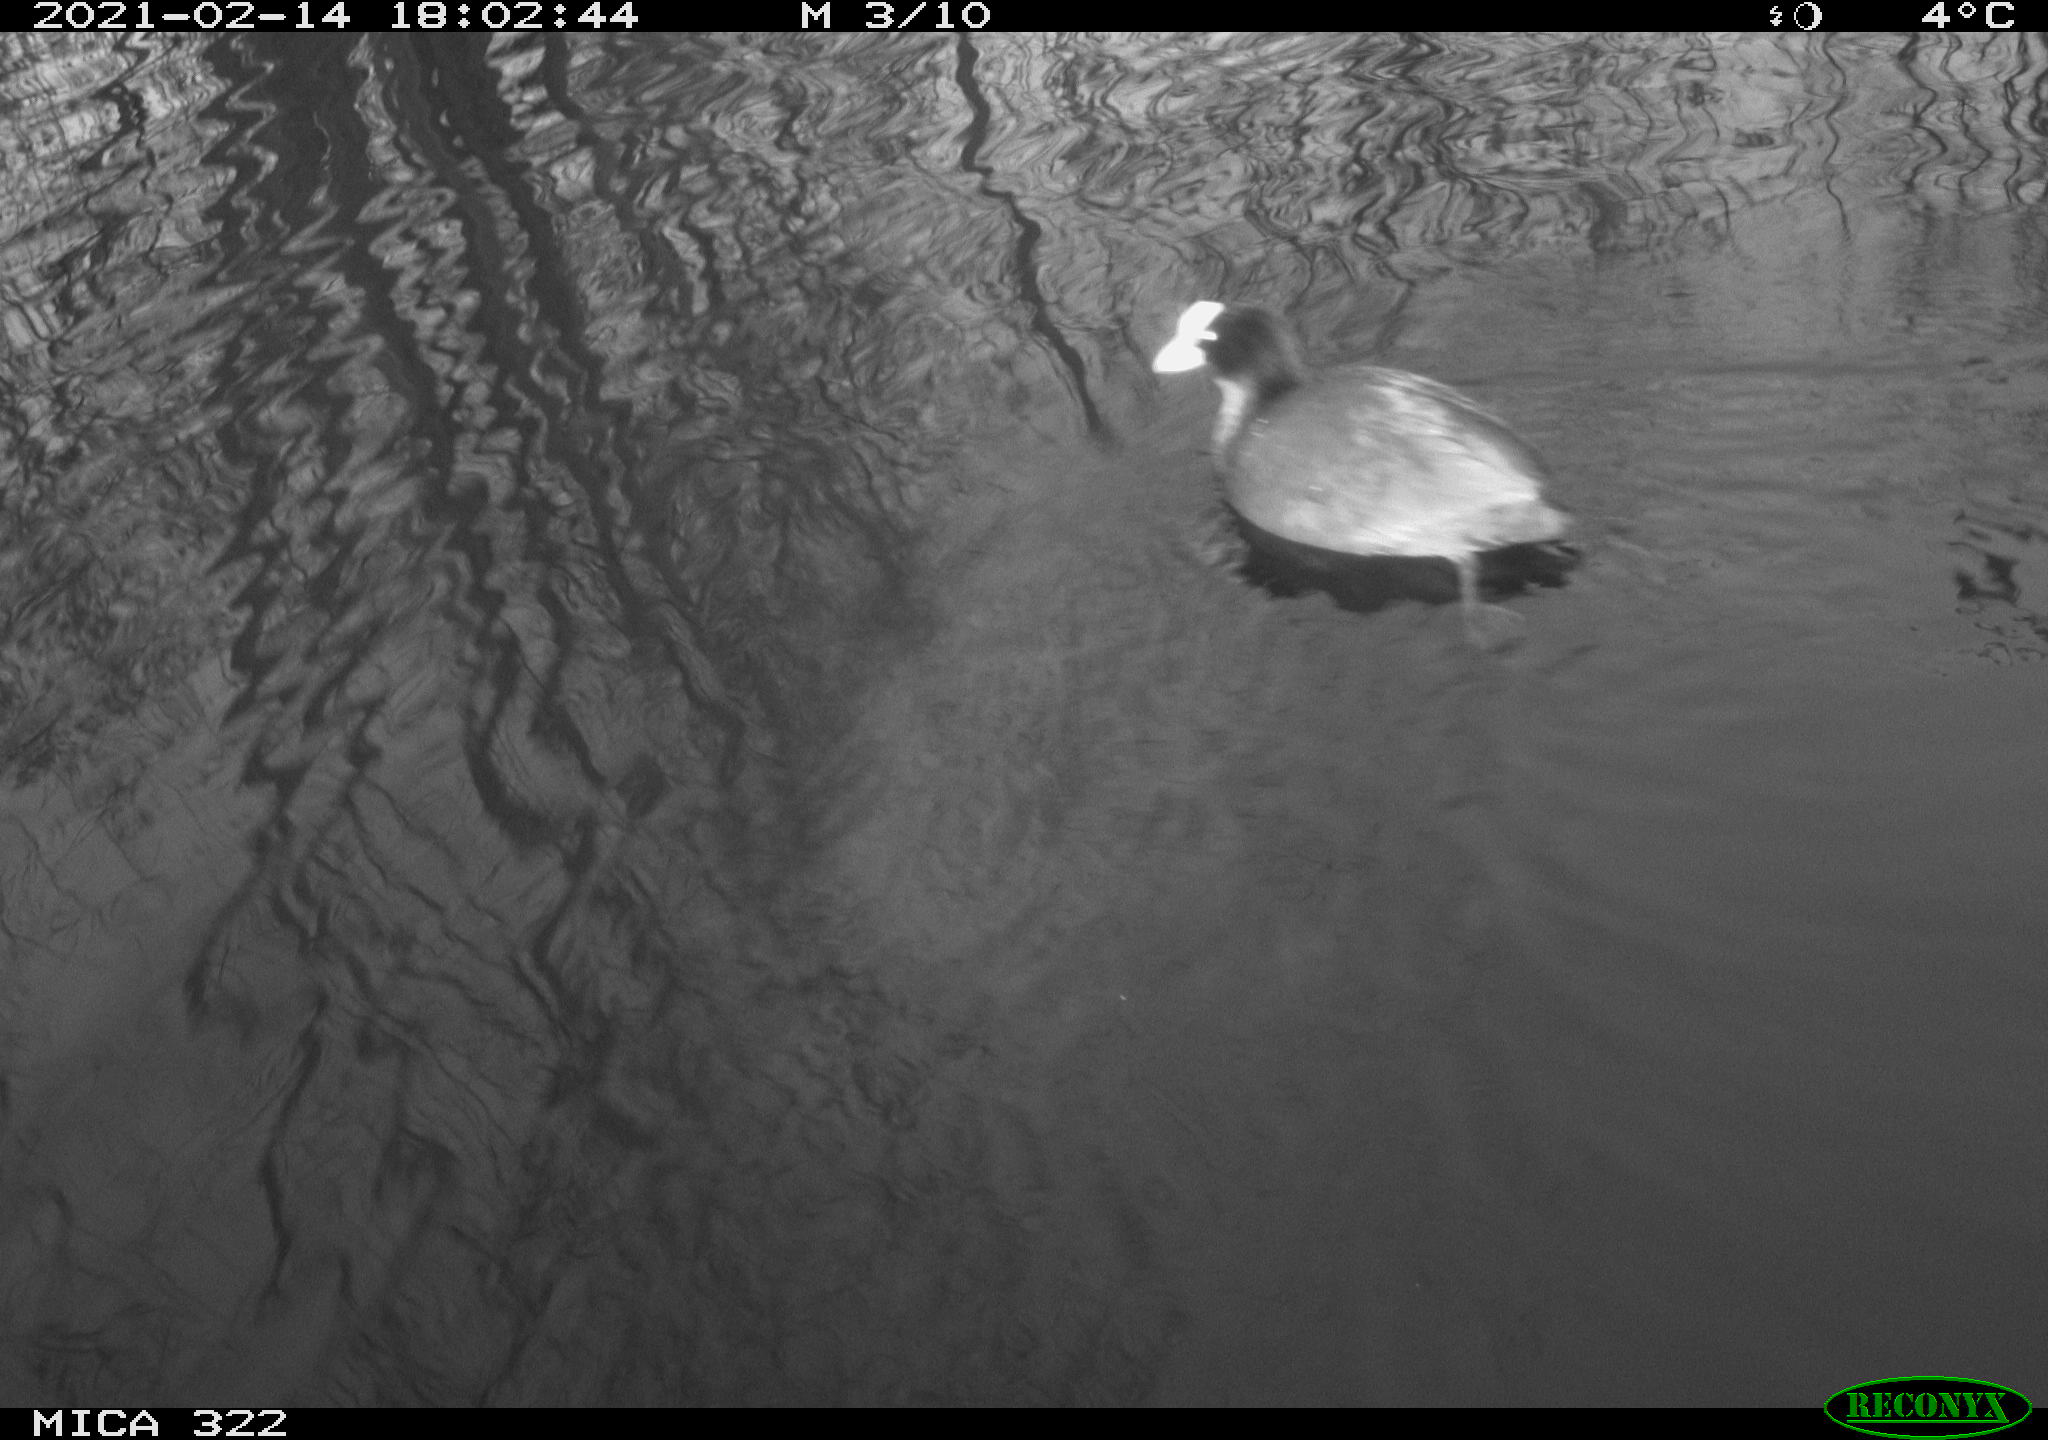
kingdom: Animalia
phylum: Chordata
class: Aves
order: Gruiformes
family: Rallidae
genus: Gallinula
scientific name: Gallinula chloropus
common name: Common moorhen
